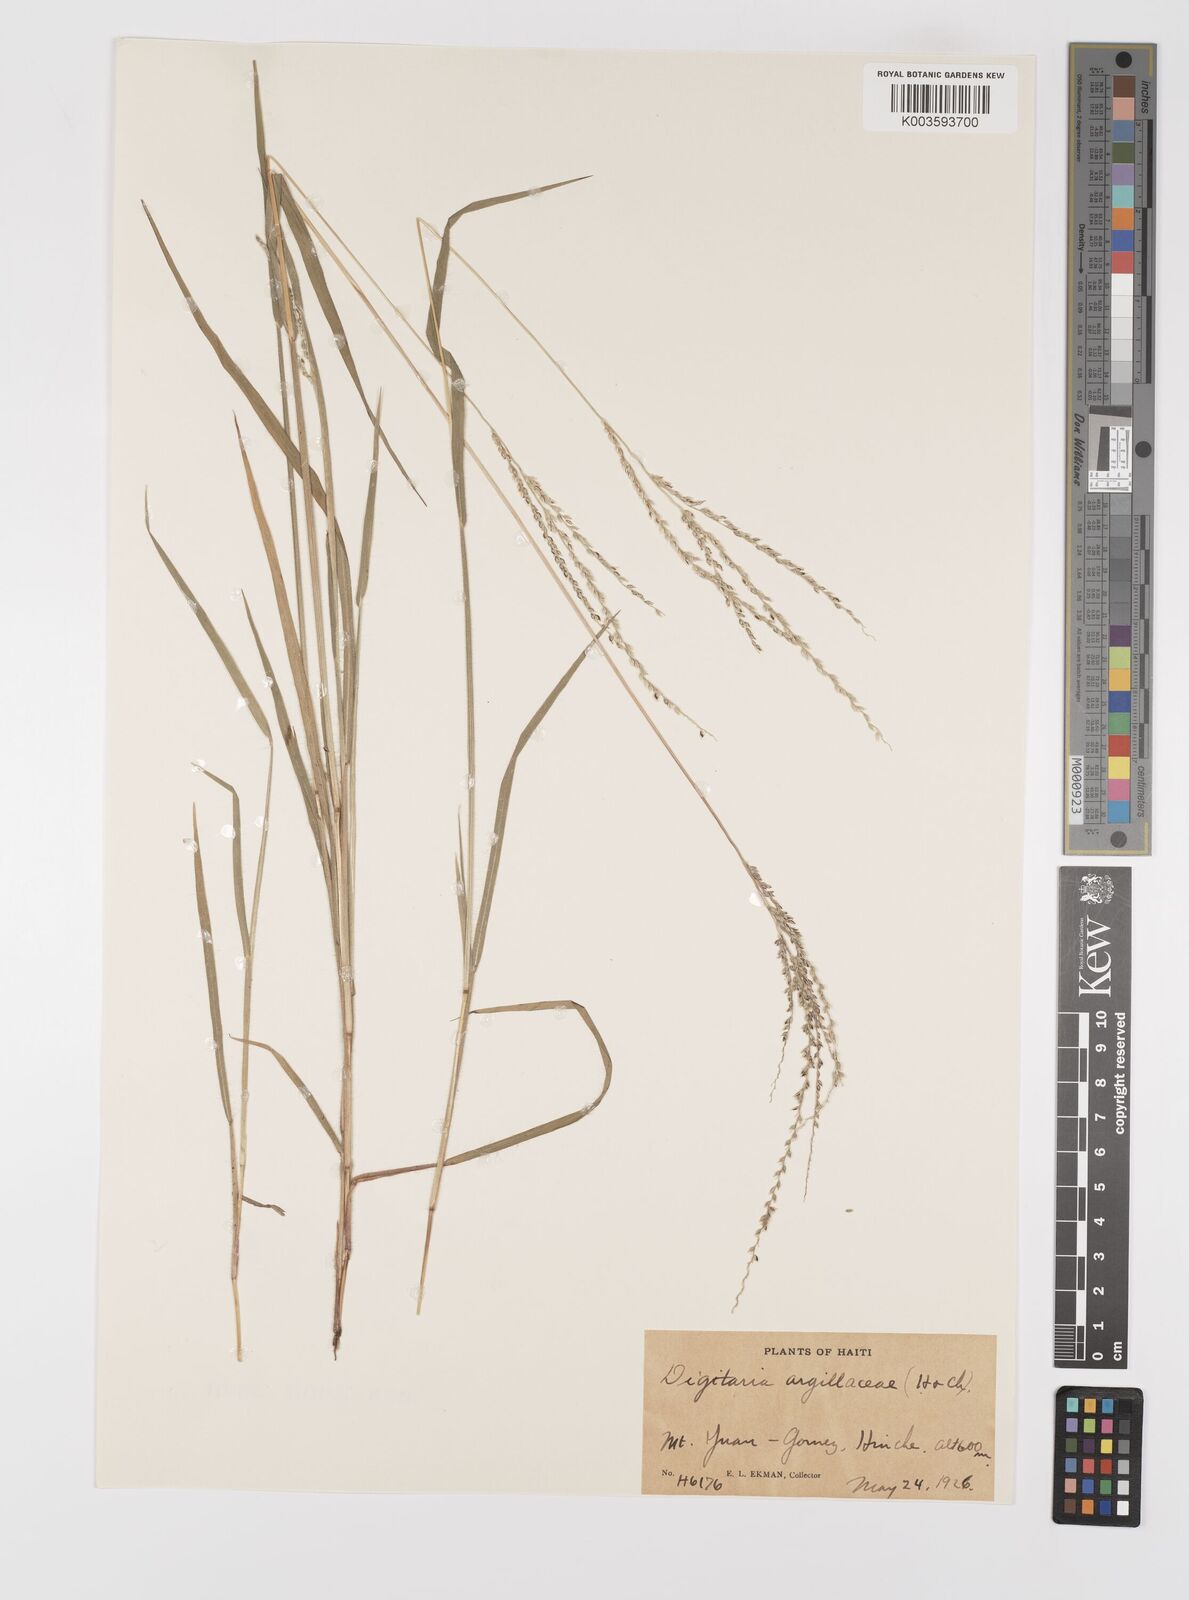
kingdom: Plantae
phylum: Tracheophyta
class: Liliopsida
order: Poales
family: Poaceae
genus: Digitaria
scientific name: Digitaria argillacea
